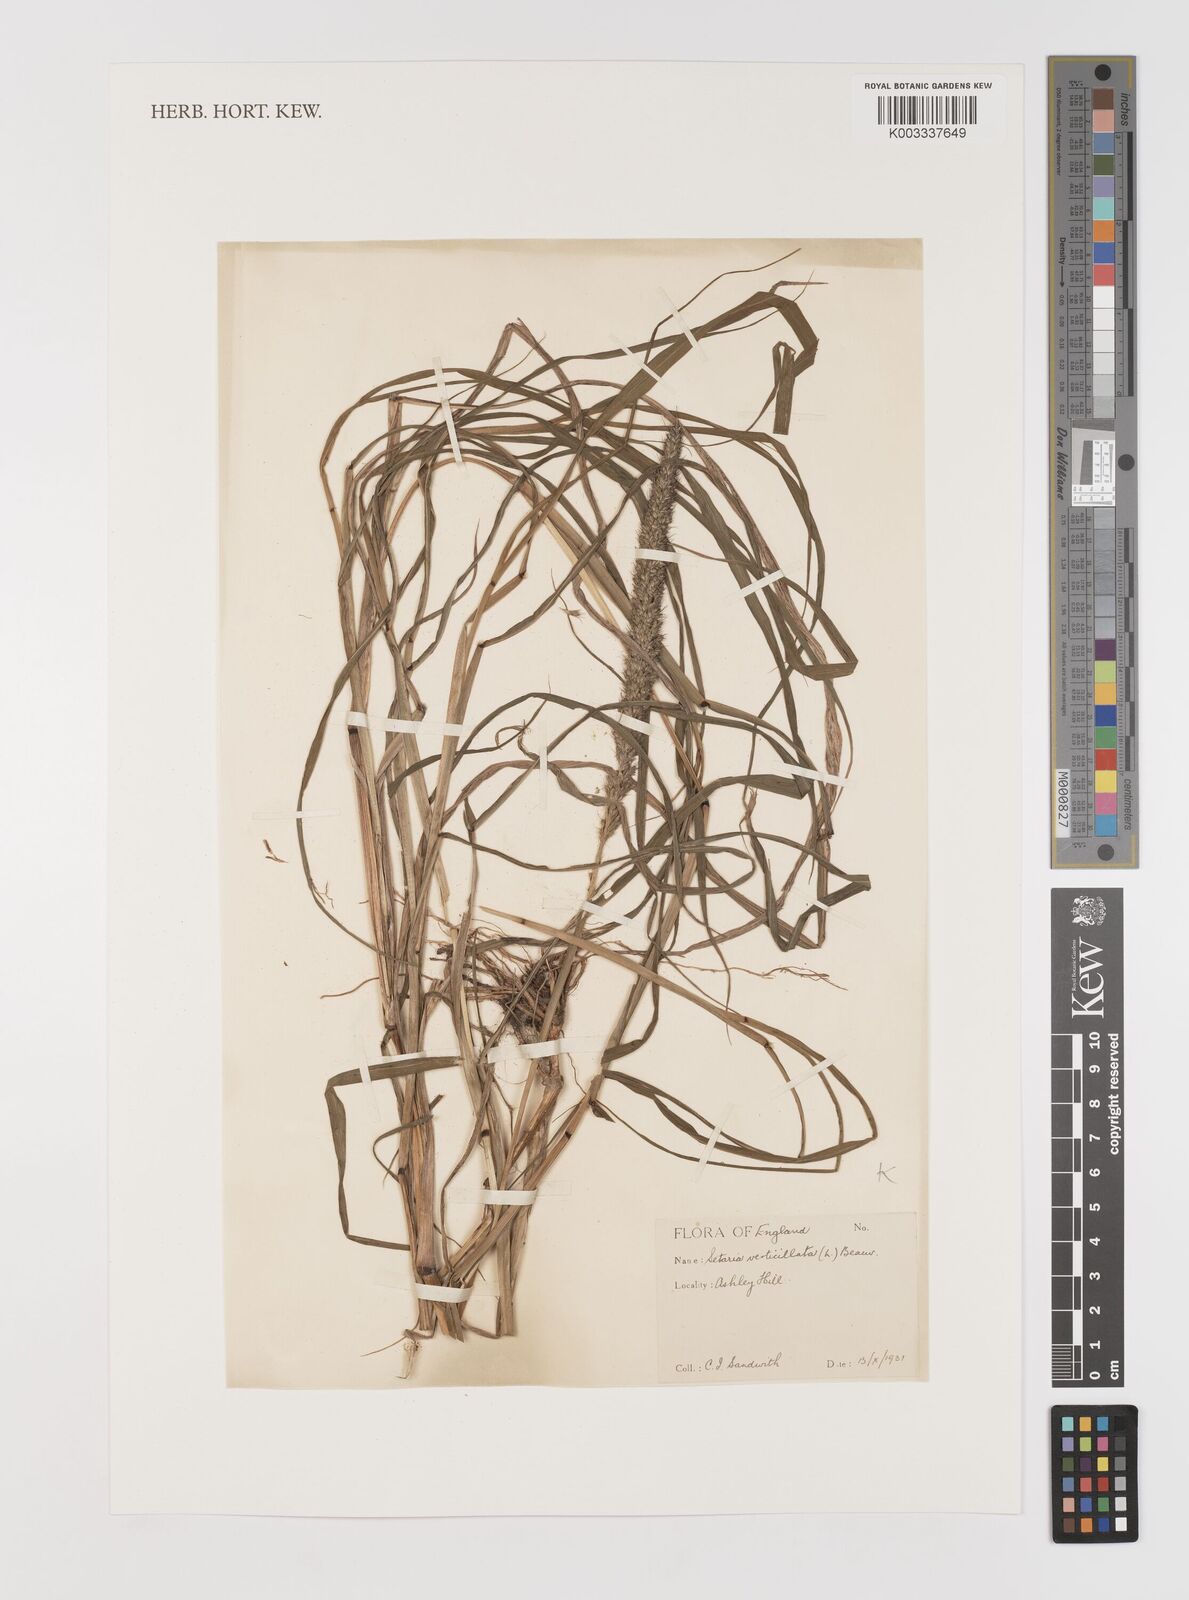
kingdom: Plantae
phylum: Tracheophyta
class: Liliopsida
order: Poales
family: Poaceae
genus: Setaria
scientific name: Setaria verticillata
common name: Hooked bristlegrass
